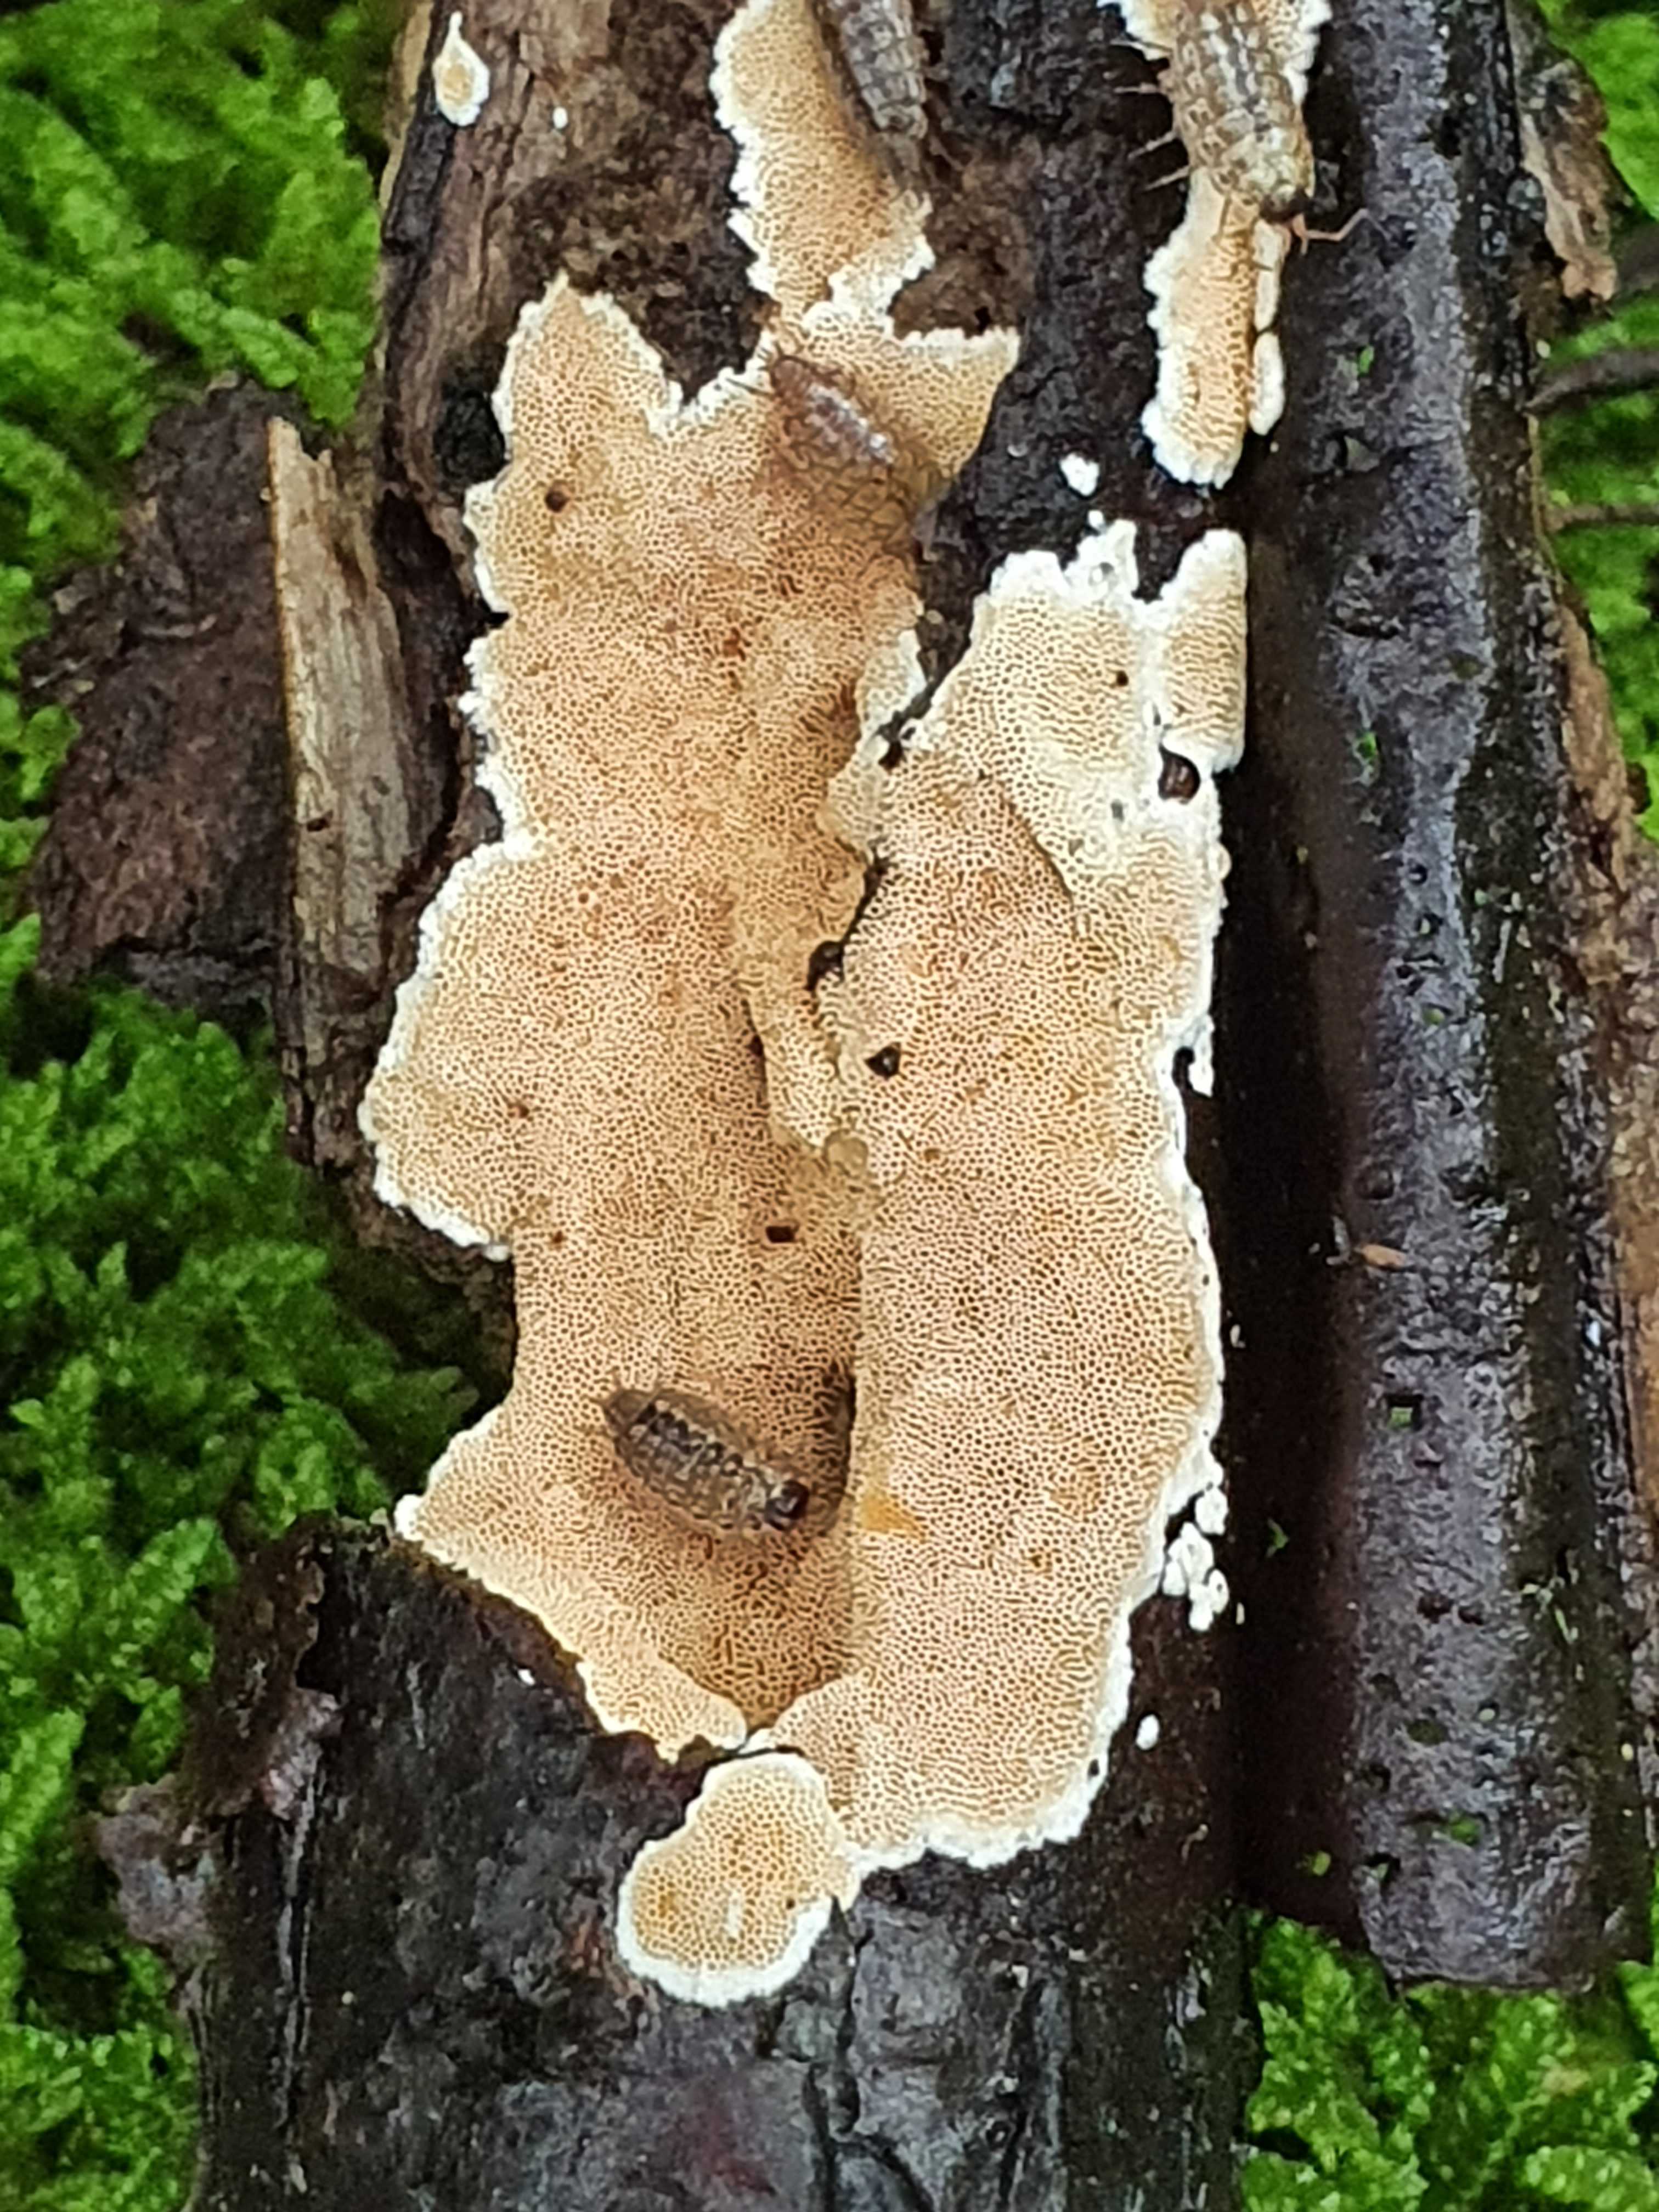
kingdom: Fungi
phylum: Basidiomycota
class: Agaricomycetes
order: Polyporales
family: Steccherinaceae
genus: Junghuhnia
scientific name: Junghuhnia nitida
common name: almindelig skønporesvamp
